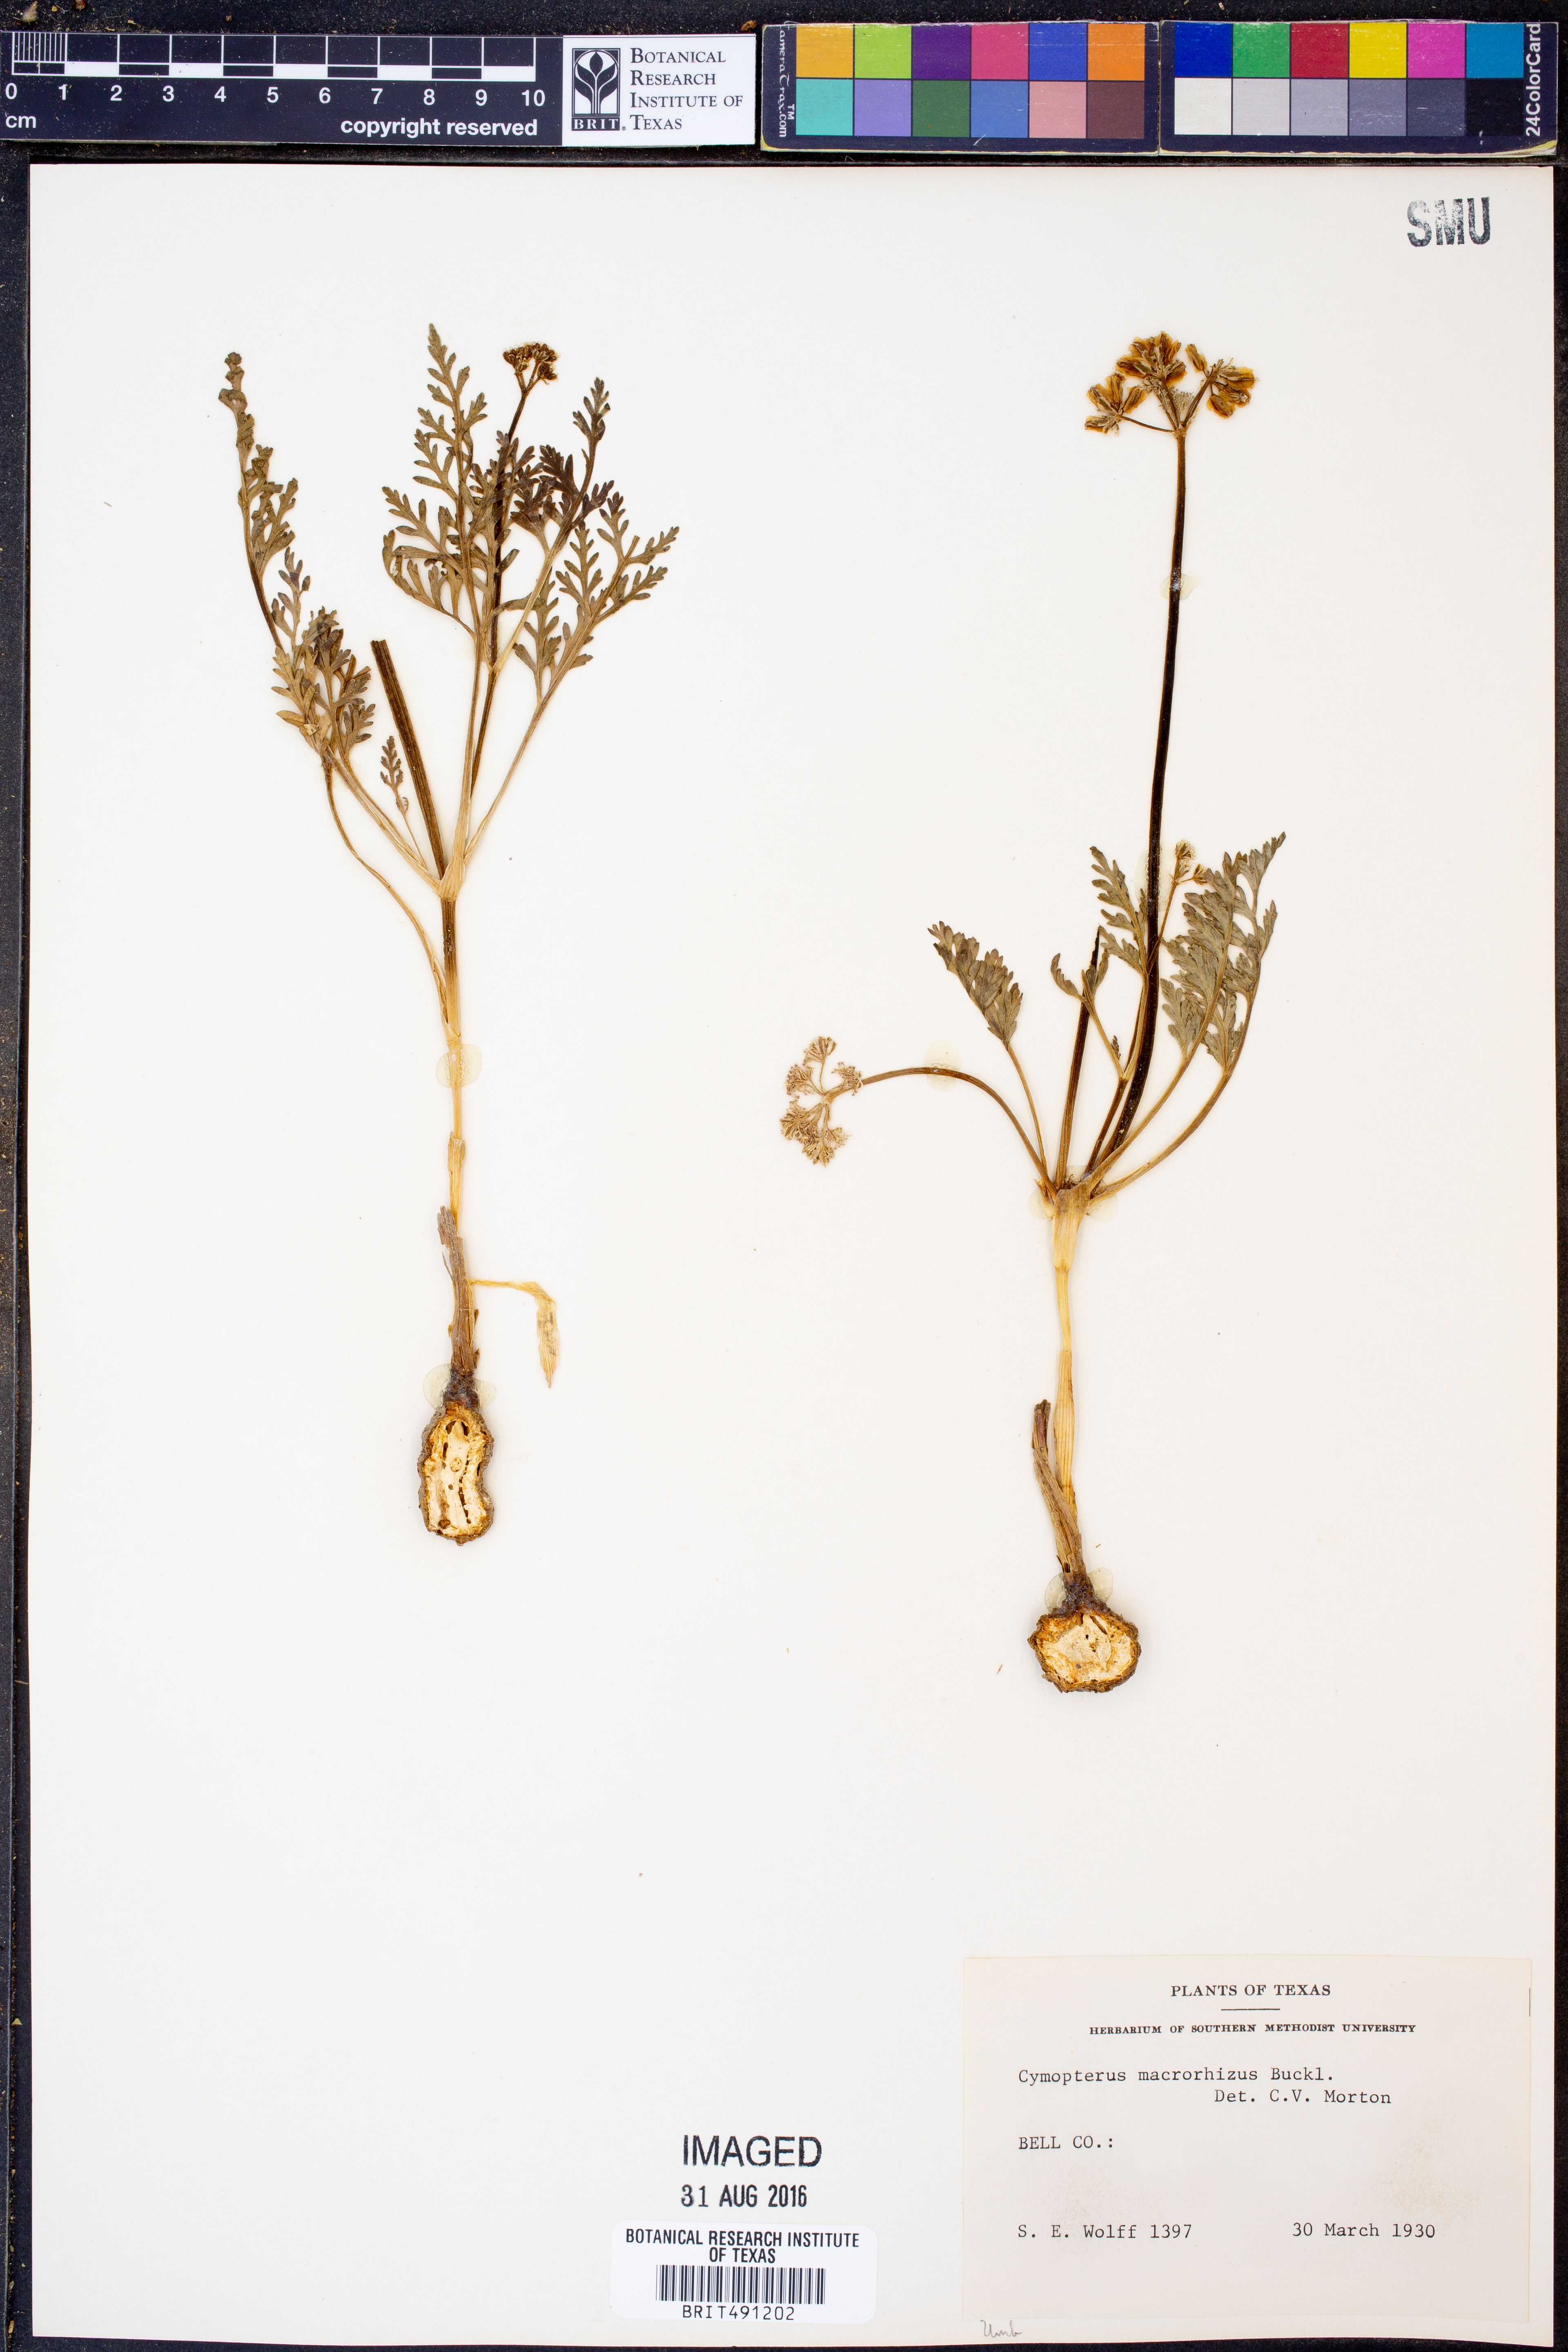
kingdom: Plantae
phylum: Tracheophyta
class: Magnoliopsida
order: Apiales
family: Apiaceae
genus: Vesper
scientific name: Vesper macrorhizus
